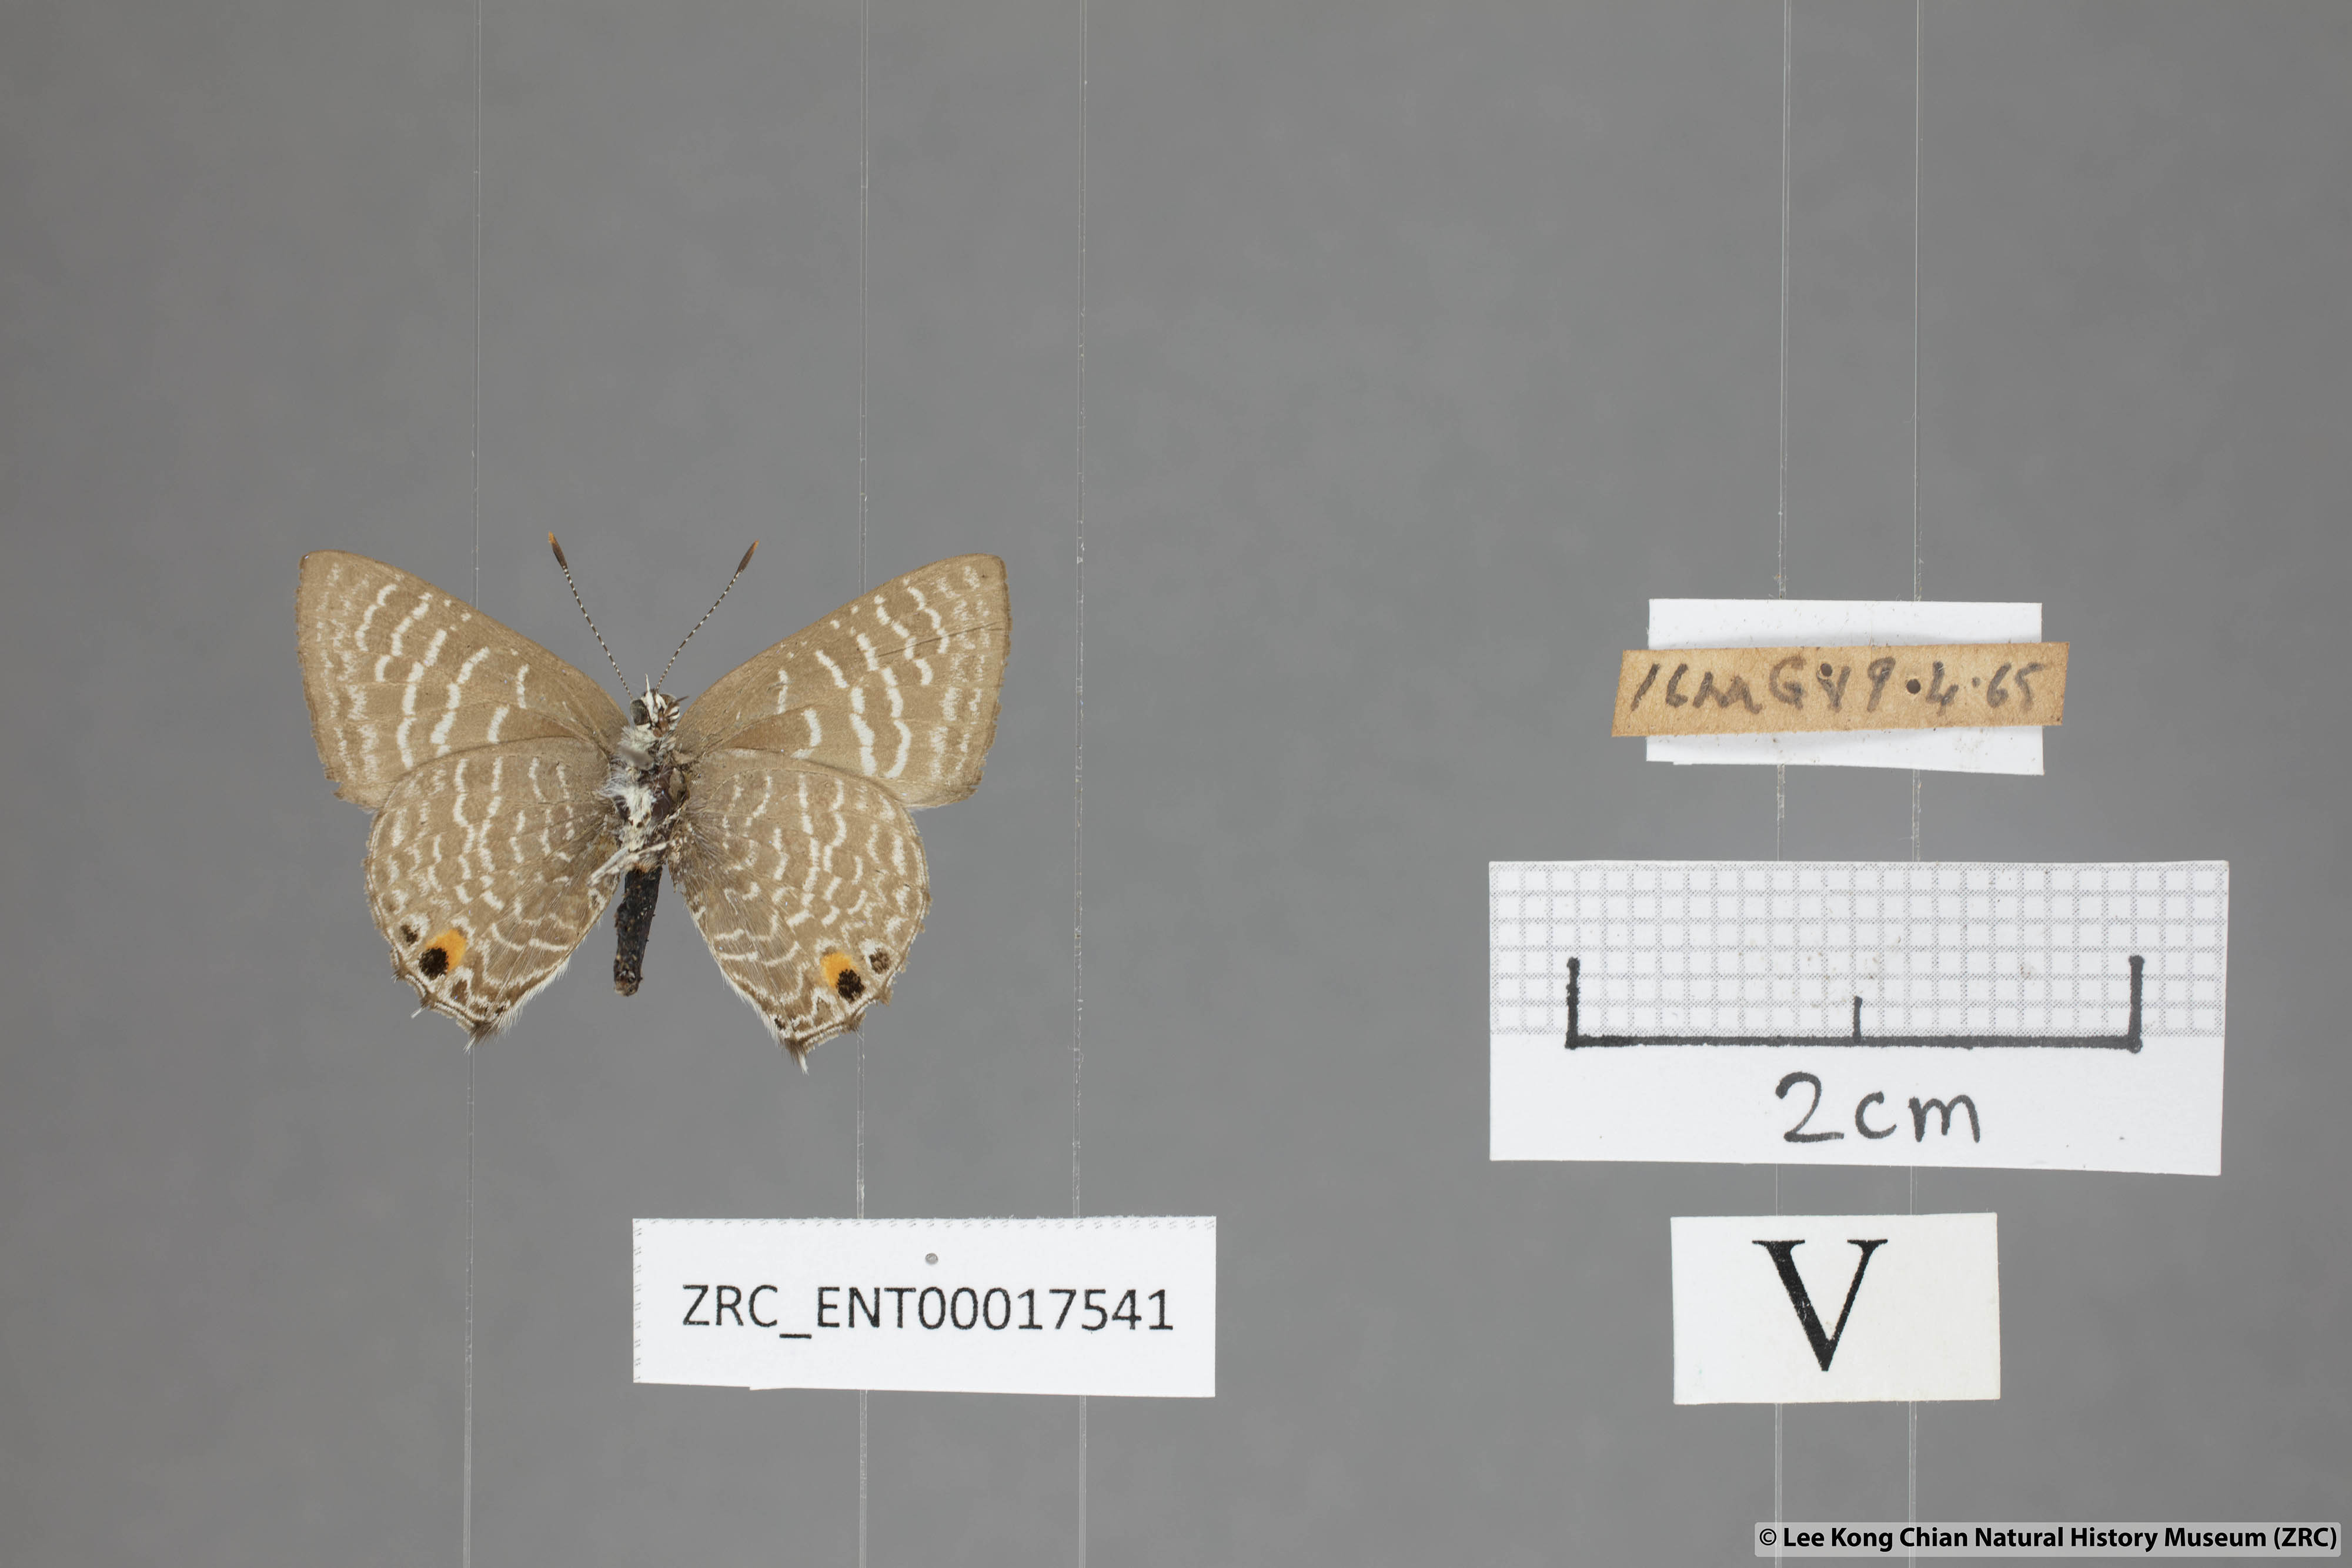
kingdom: Animalia
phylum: Arthropoda
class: Insecta
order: Lepidoptera
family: Lycaenidae
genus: Anthene
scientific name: Anthene licates
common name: White ciliate blue
